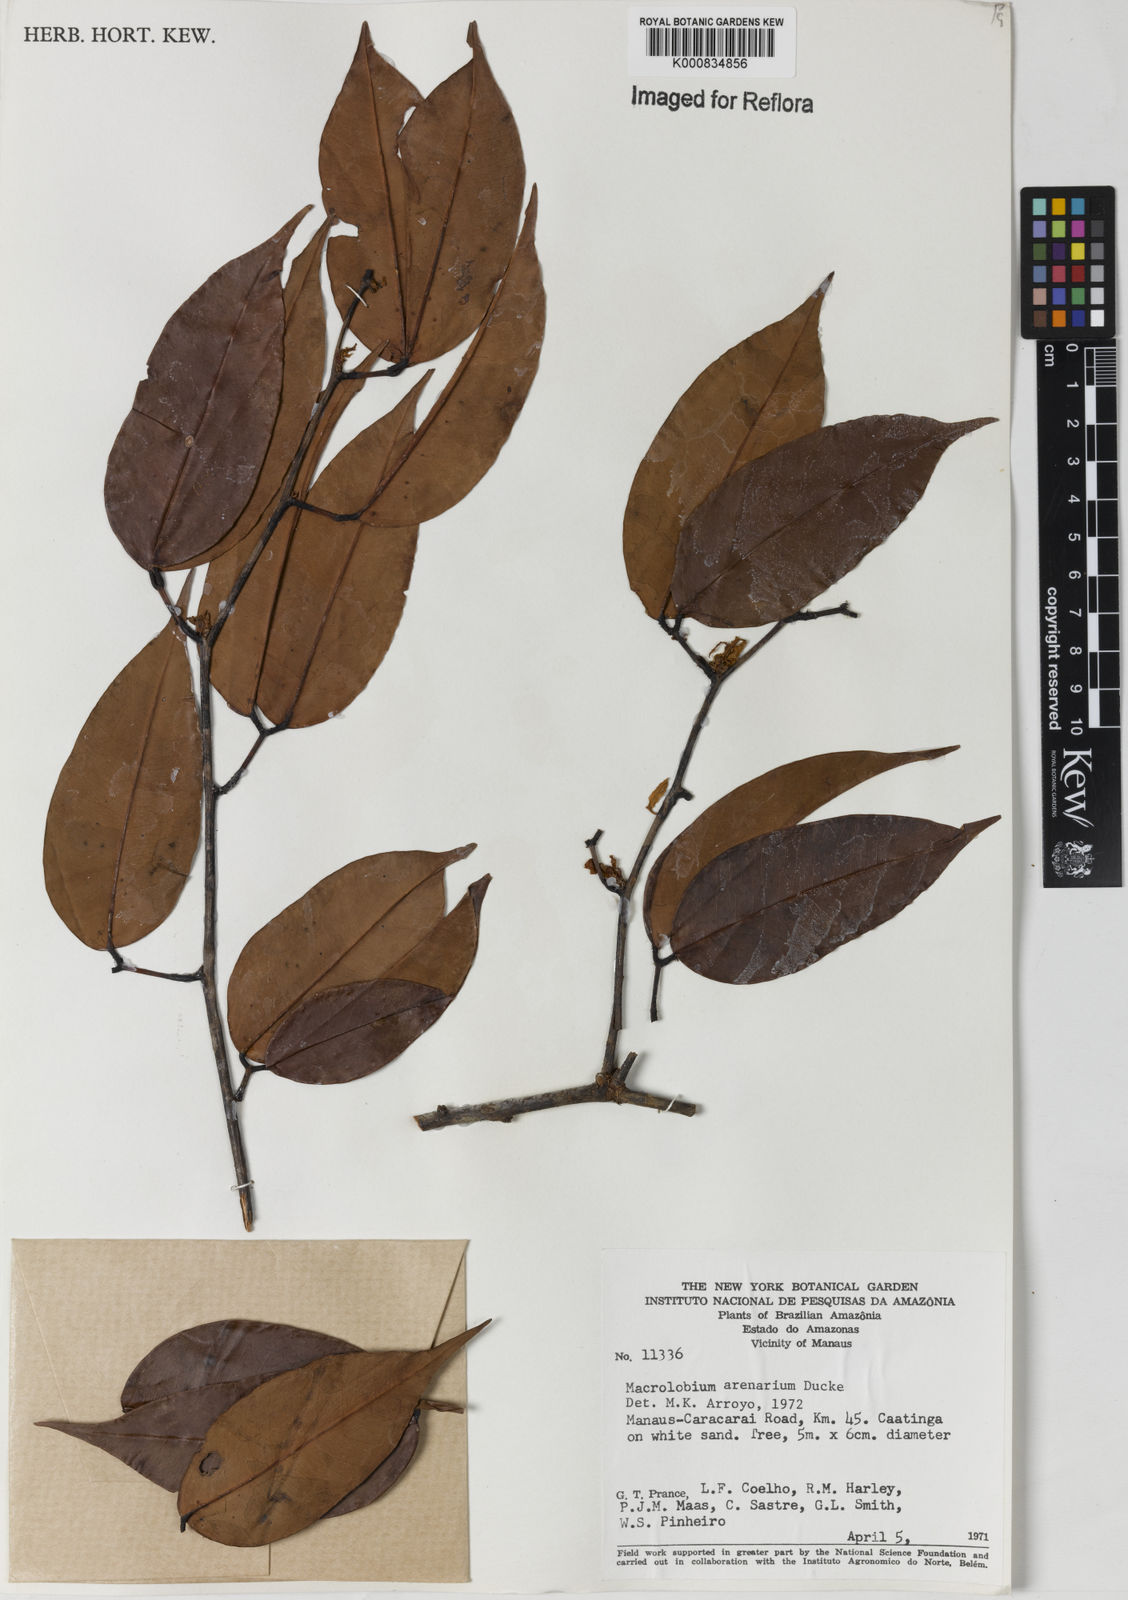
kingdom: Plantae
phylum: Tracheophyta
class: Magnoliopsida
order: Fabales
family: Fabaceae
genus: Macrolobium
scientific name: Macrolobium arenarium
